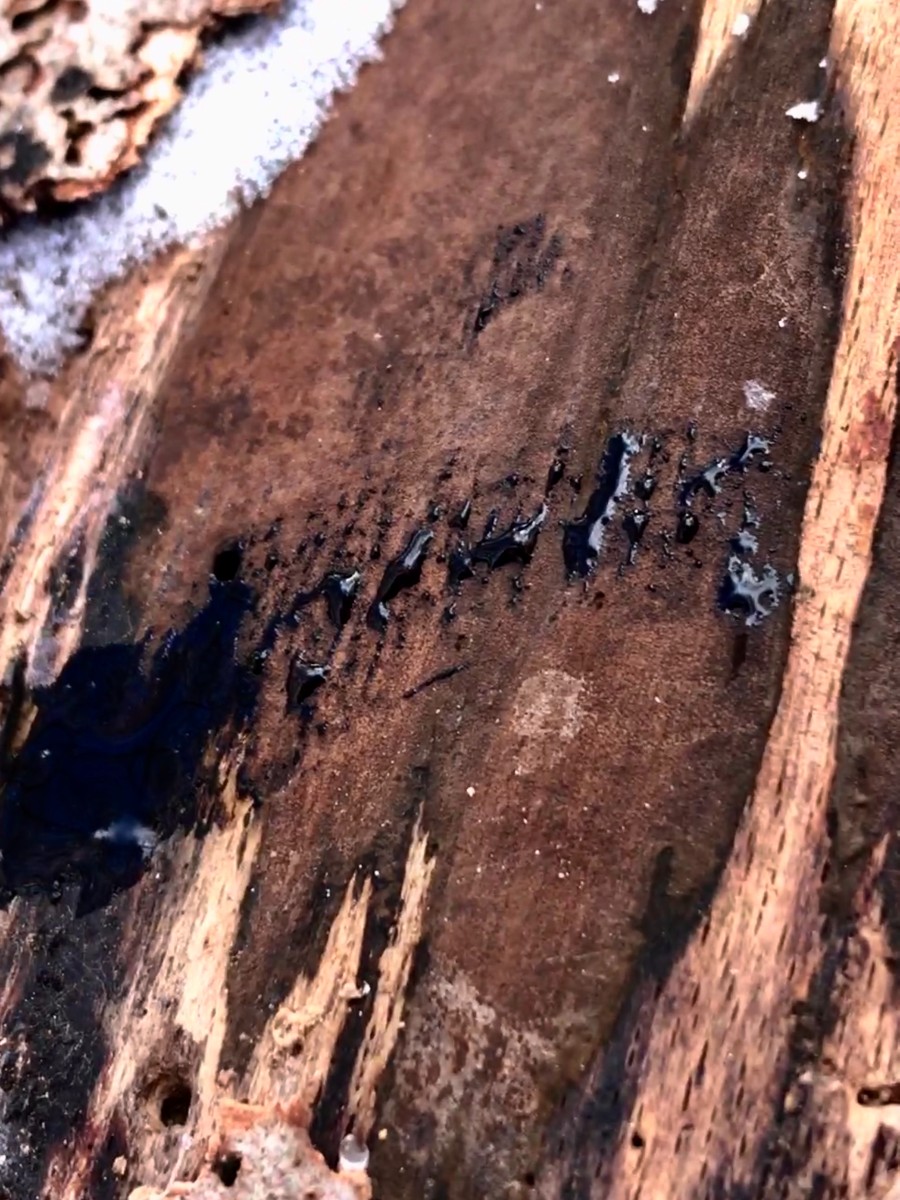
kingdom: Fungi
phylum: Ascomycota
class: Sordariomycetes
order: Xylariales
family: Hypoxylaceae
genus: Hypoxylon
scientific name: Hypoxylon macrocarpum
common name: skorpe-kulbær
